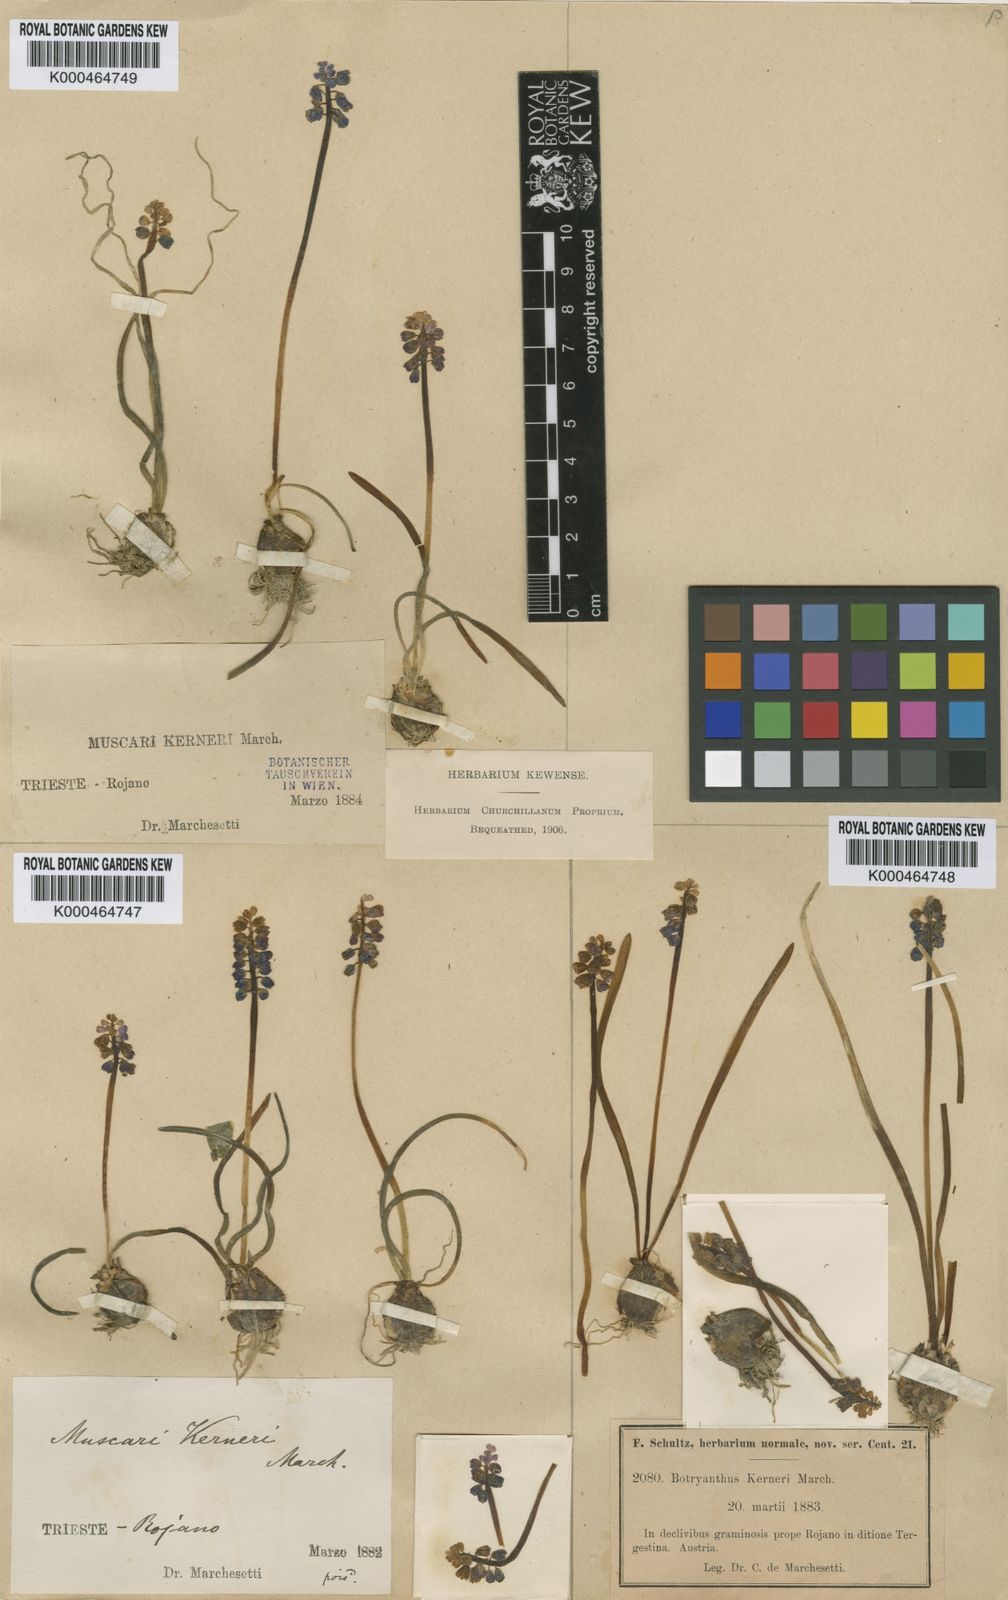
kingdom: Plantae
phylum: Tracheophyta
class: Liliopsida
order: Asparagales
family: Asparagaceae
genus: Muscari
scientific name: Muscari botryoides
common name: Compact grape-hyacinth
